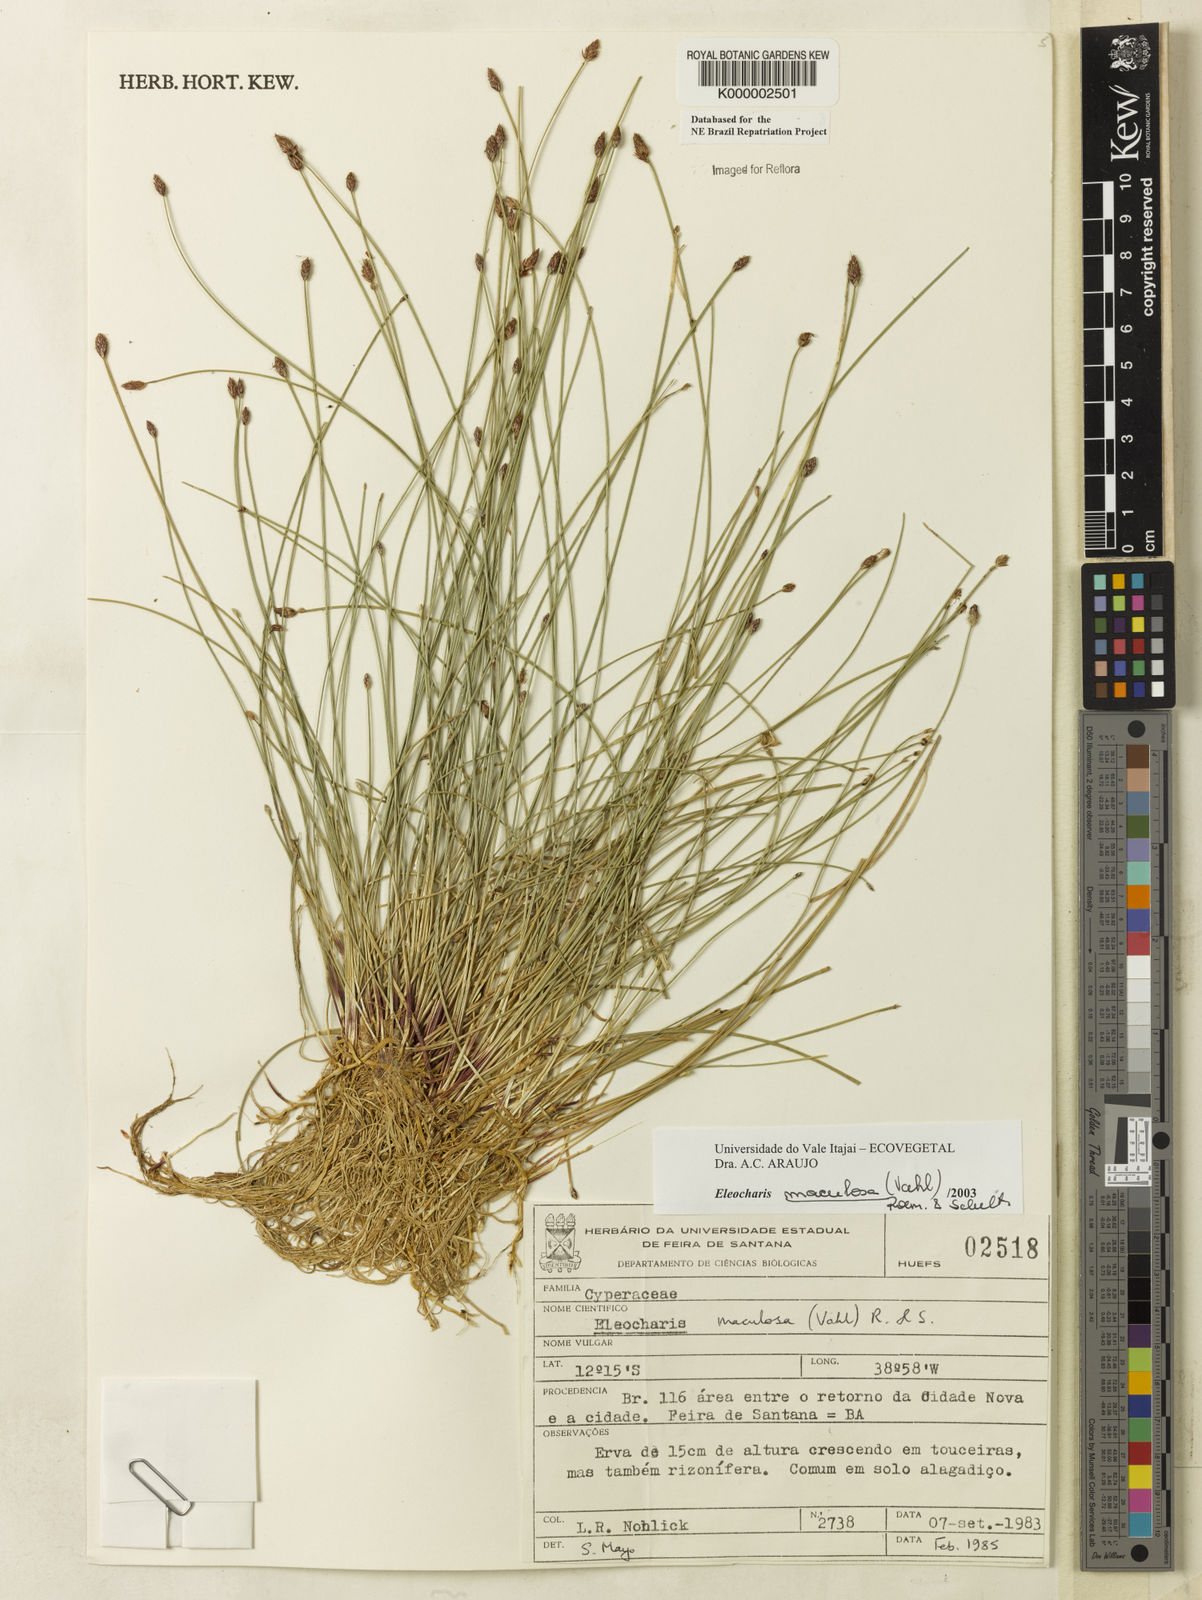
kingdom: Plantae
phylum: Tracheophyta
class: Liliopsida
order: Poales
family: Cyperaceae
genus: Eleocharis
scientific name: Eleocharis maculosa
